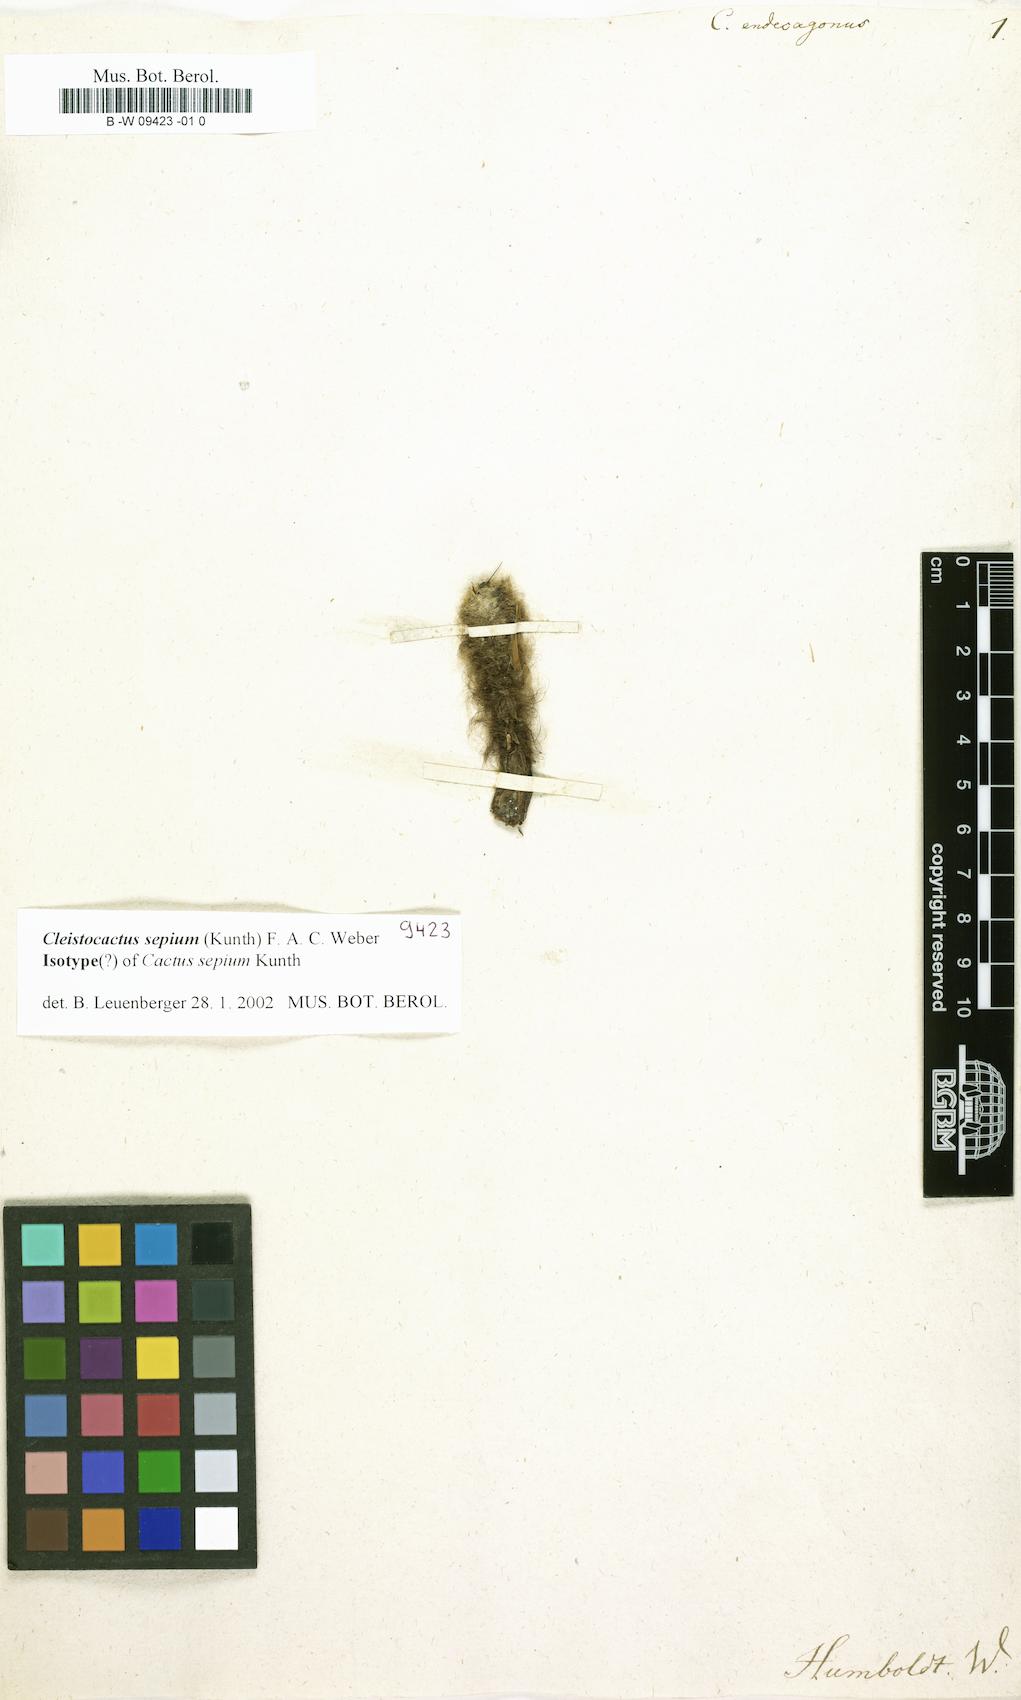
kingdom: Plantae
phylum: Tracheophyta
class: Magnoliopsida
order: Caryophyllales
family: Cactaceae
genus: Cactus
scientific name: Cactus
